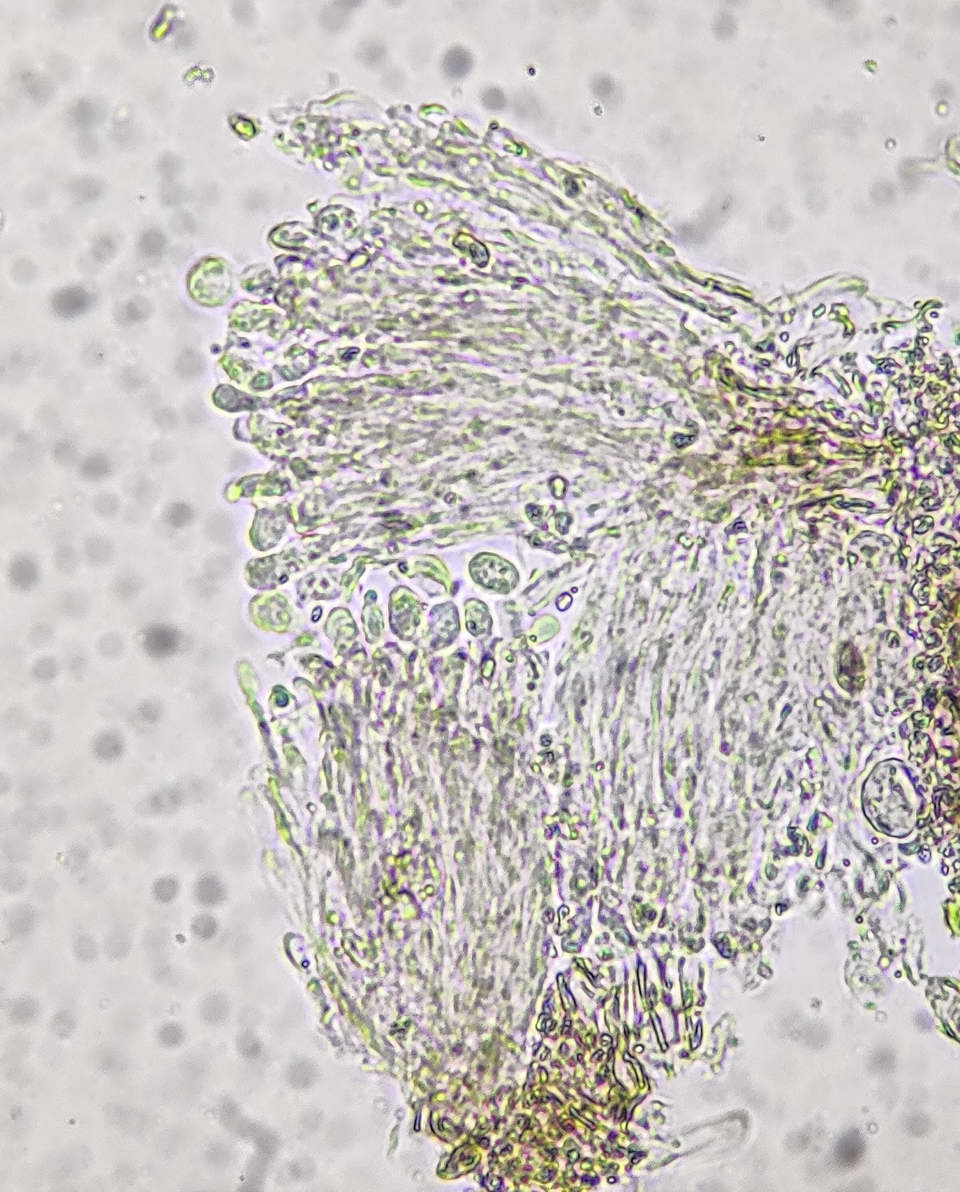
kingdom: Fungi
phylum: Basidiomycota
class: Pucciniomycetes
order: Helicobasidiales
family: Helicobasidiaceae
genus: Helicobasidium
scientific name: Helicobasidium purpureum
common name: purpur-bispebævrehinde
